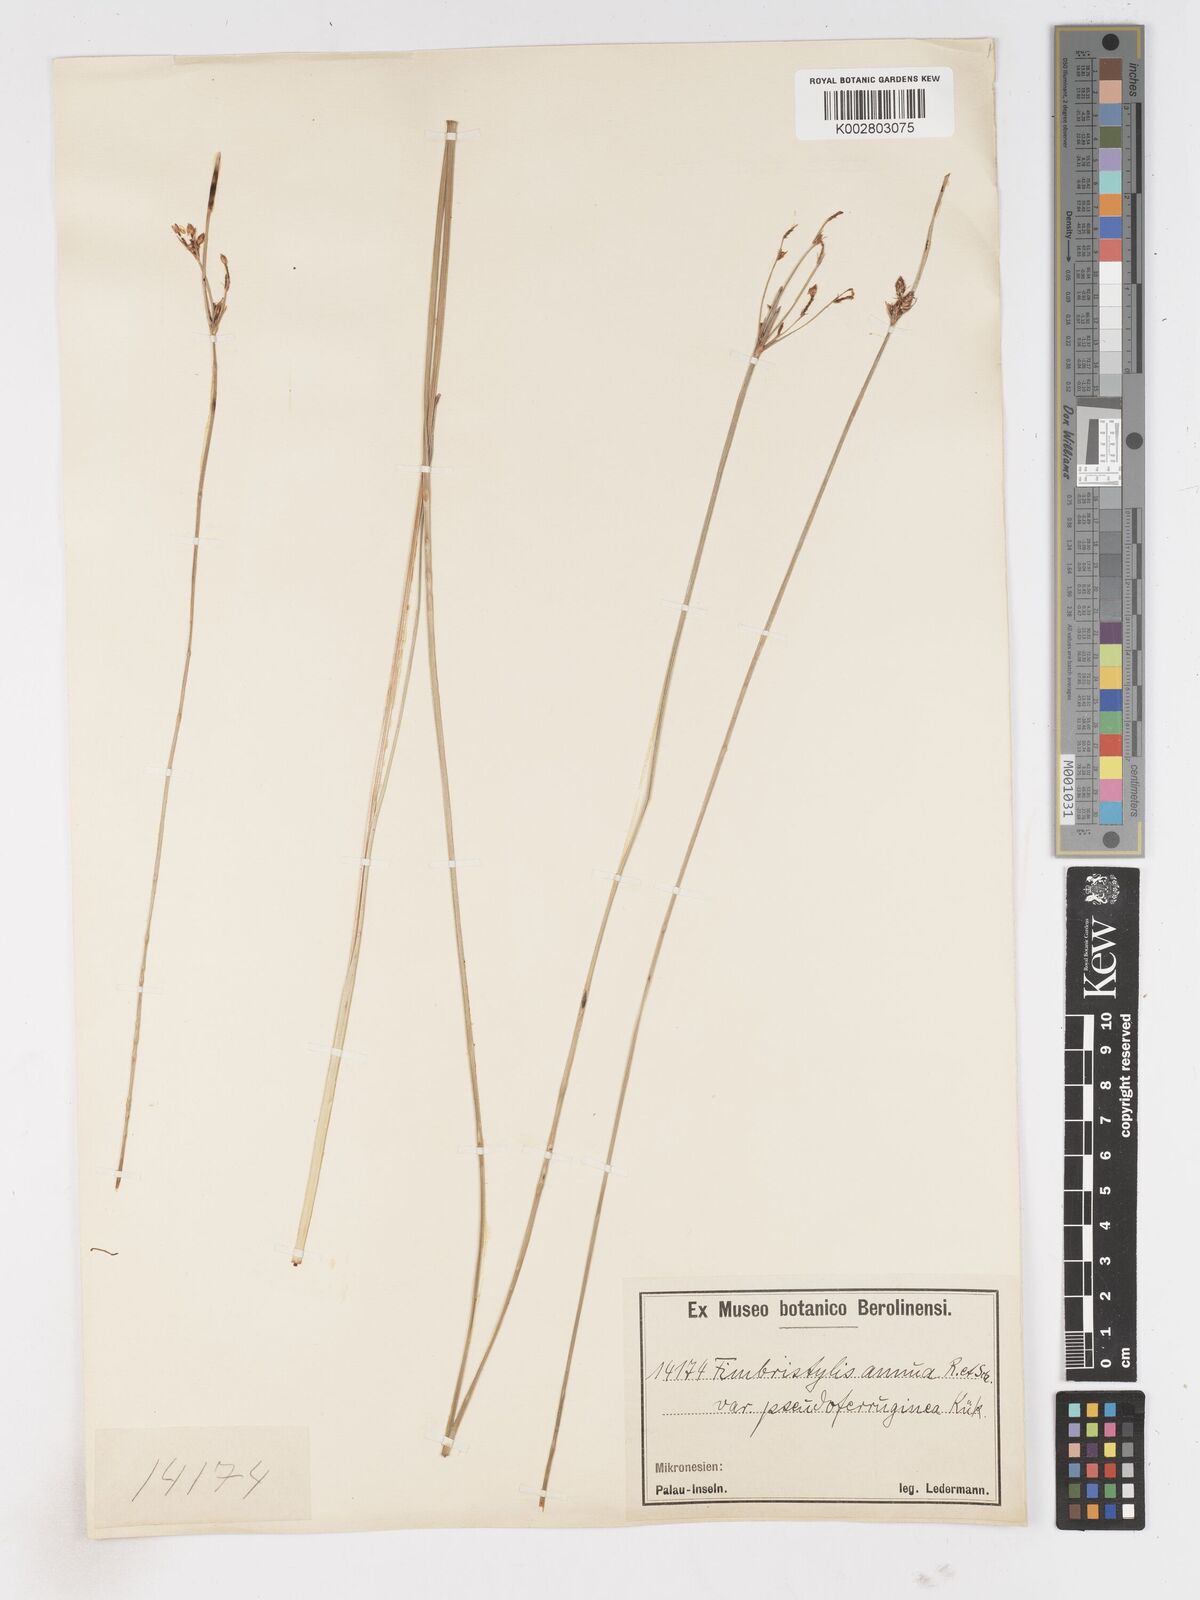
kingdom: Plantae
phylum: Tracheophyta
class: Liliopsida
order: Poales
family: Cyperaceae
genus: Fimbristylis
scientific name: Fimbristylis dichotoma
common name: Forked fimbry
